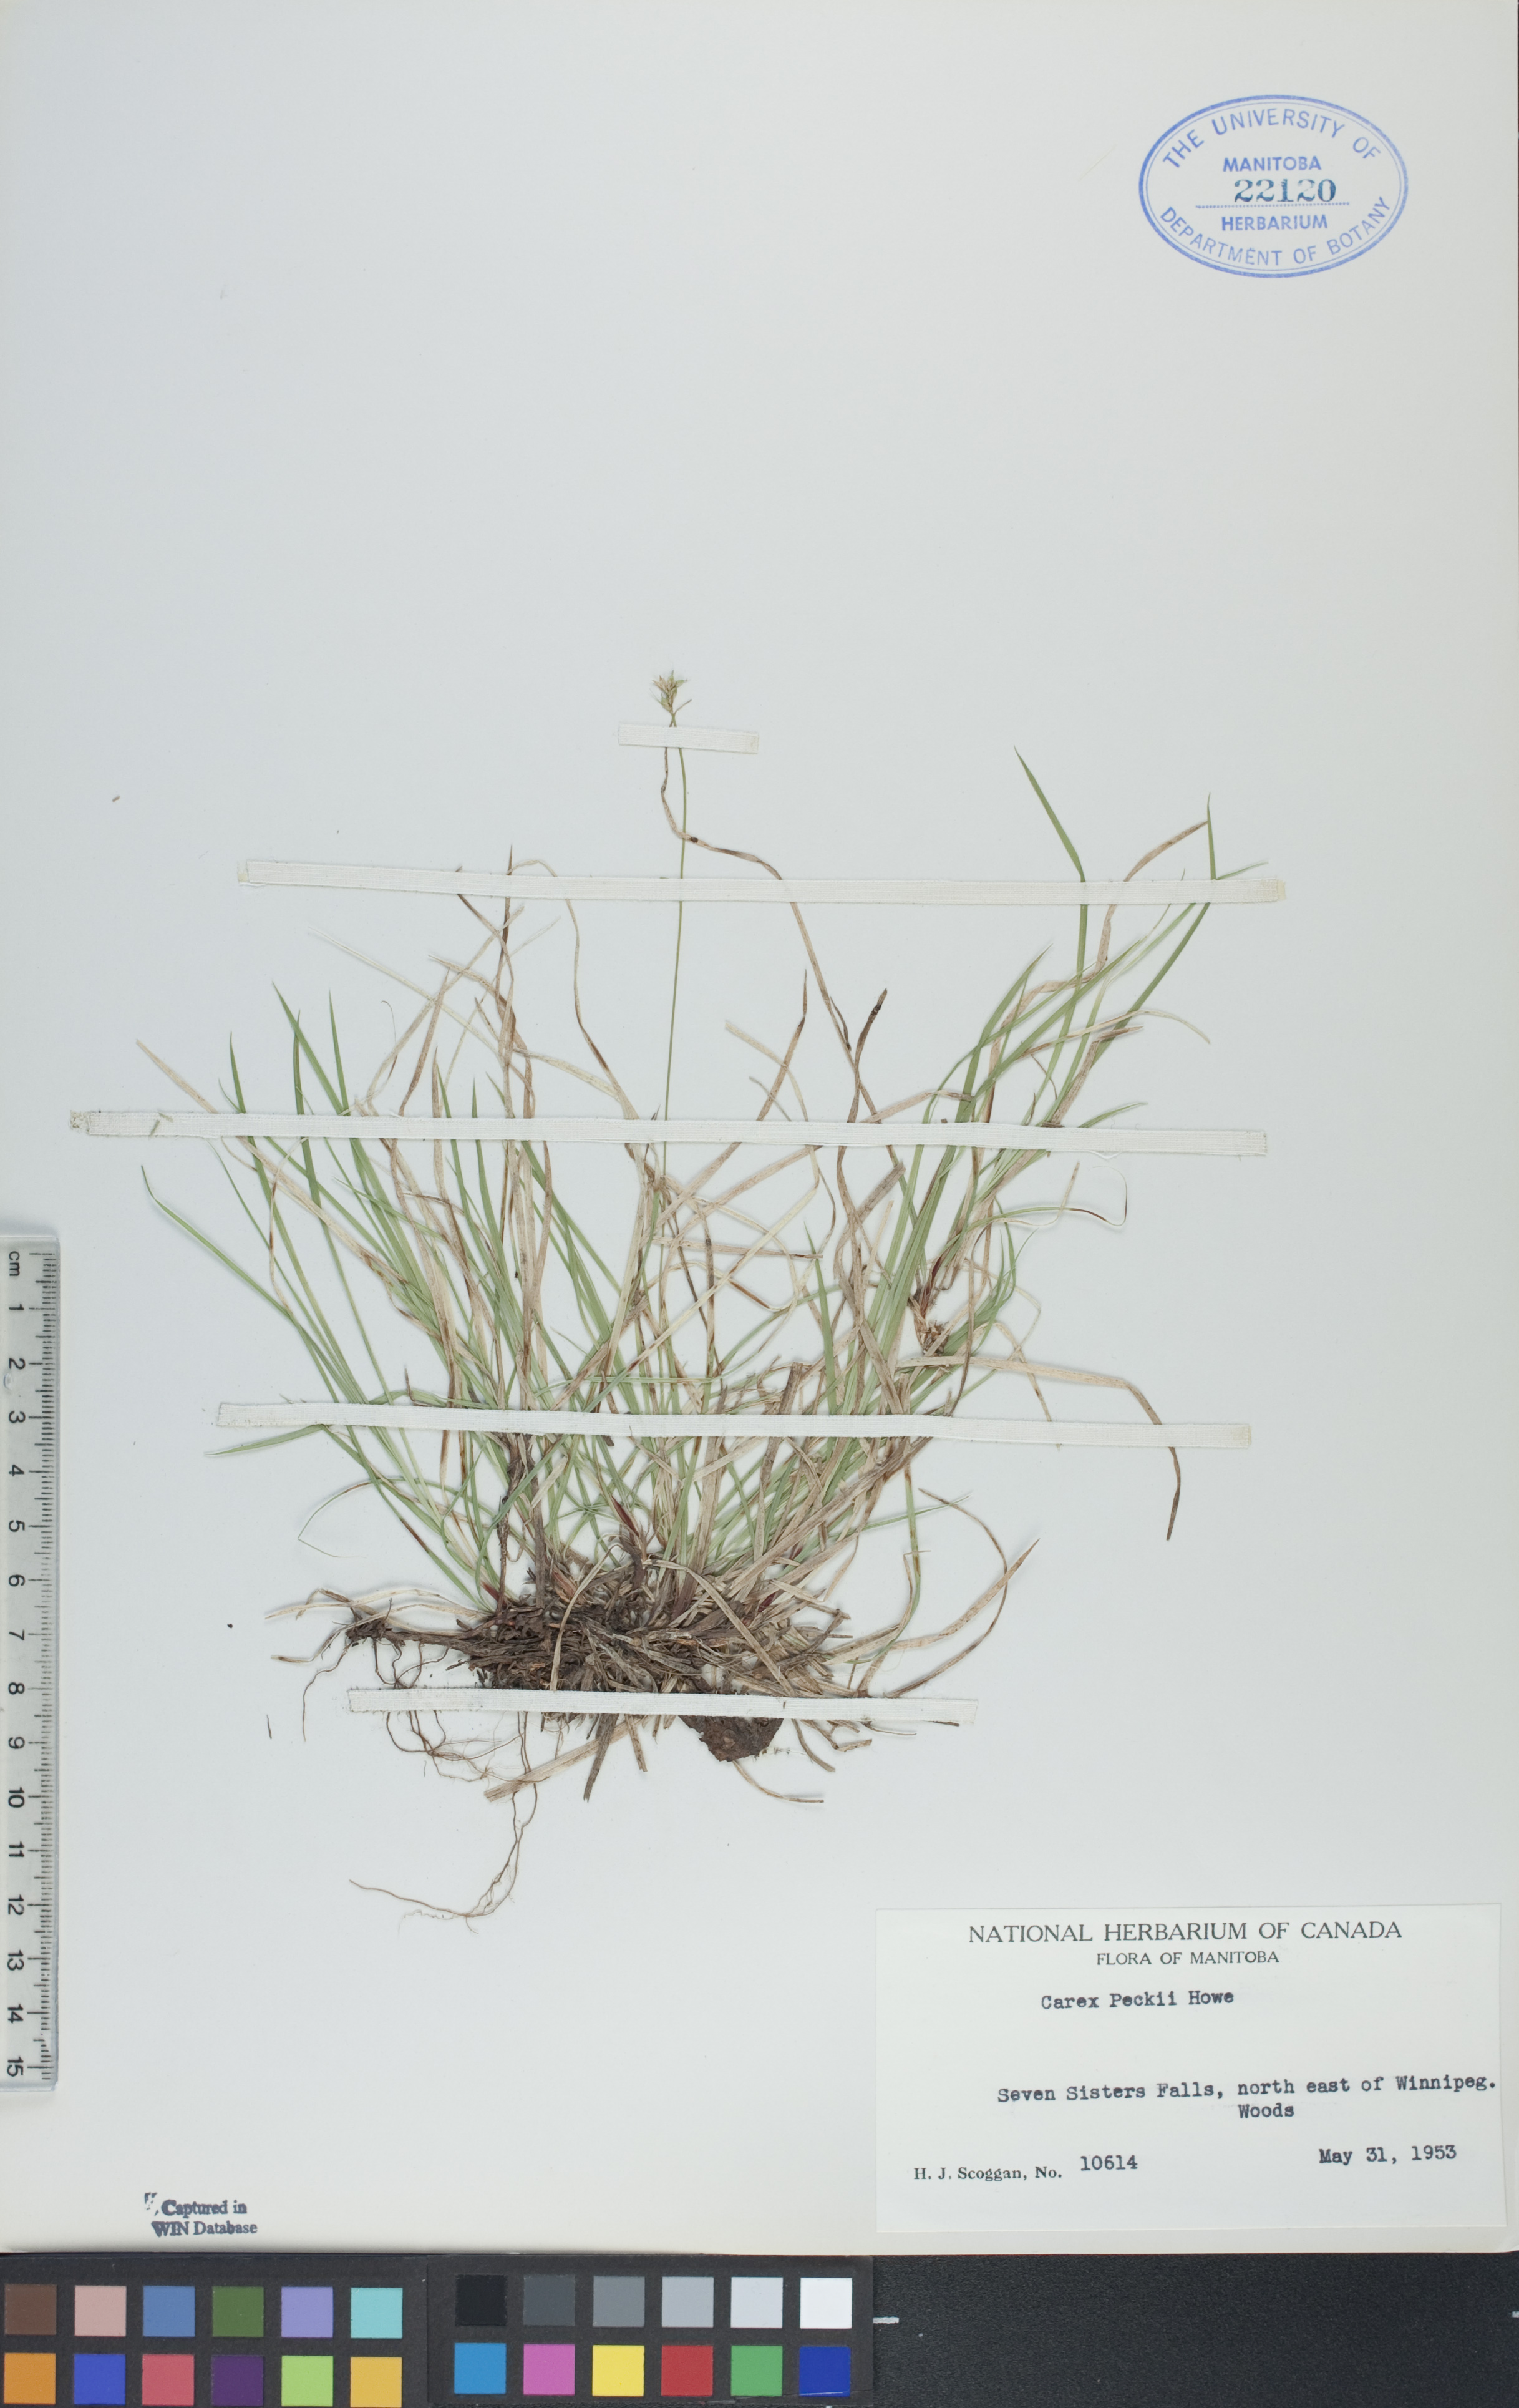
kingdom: Plantae
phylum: Tracheophyta
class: Liliopsida
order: Poales
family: Cyperaceae
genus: Carex
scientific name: Carex peckii
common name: Peck's oak sedge
